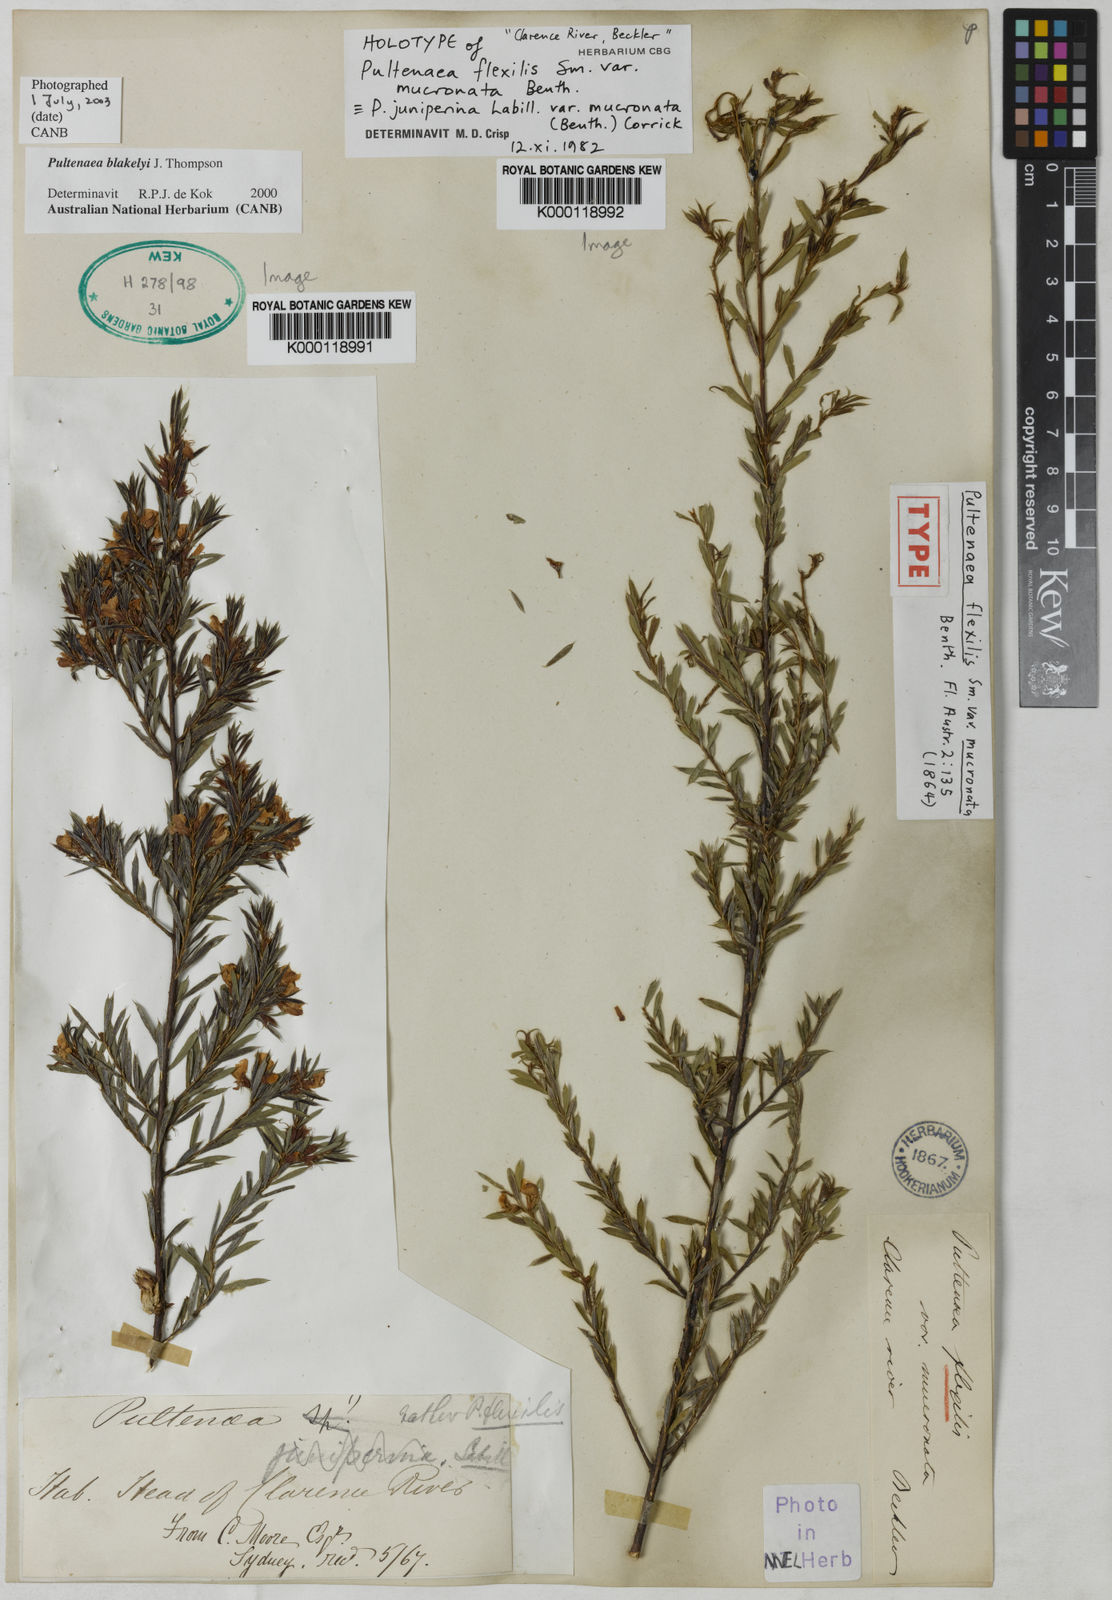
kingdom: Plantae
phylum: Tracheophyta
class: Magnoliopsida
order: Fabales
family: Fabaceae
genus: Pultenaea
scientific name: Pultenaea blakelyi
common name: Blakely's bush-pea
